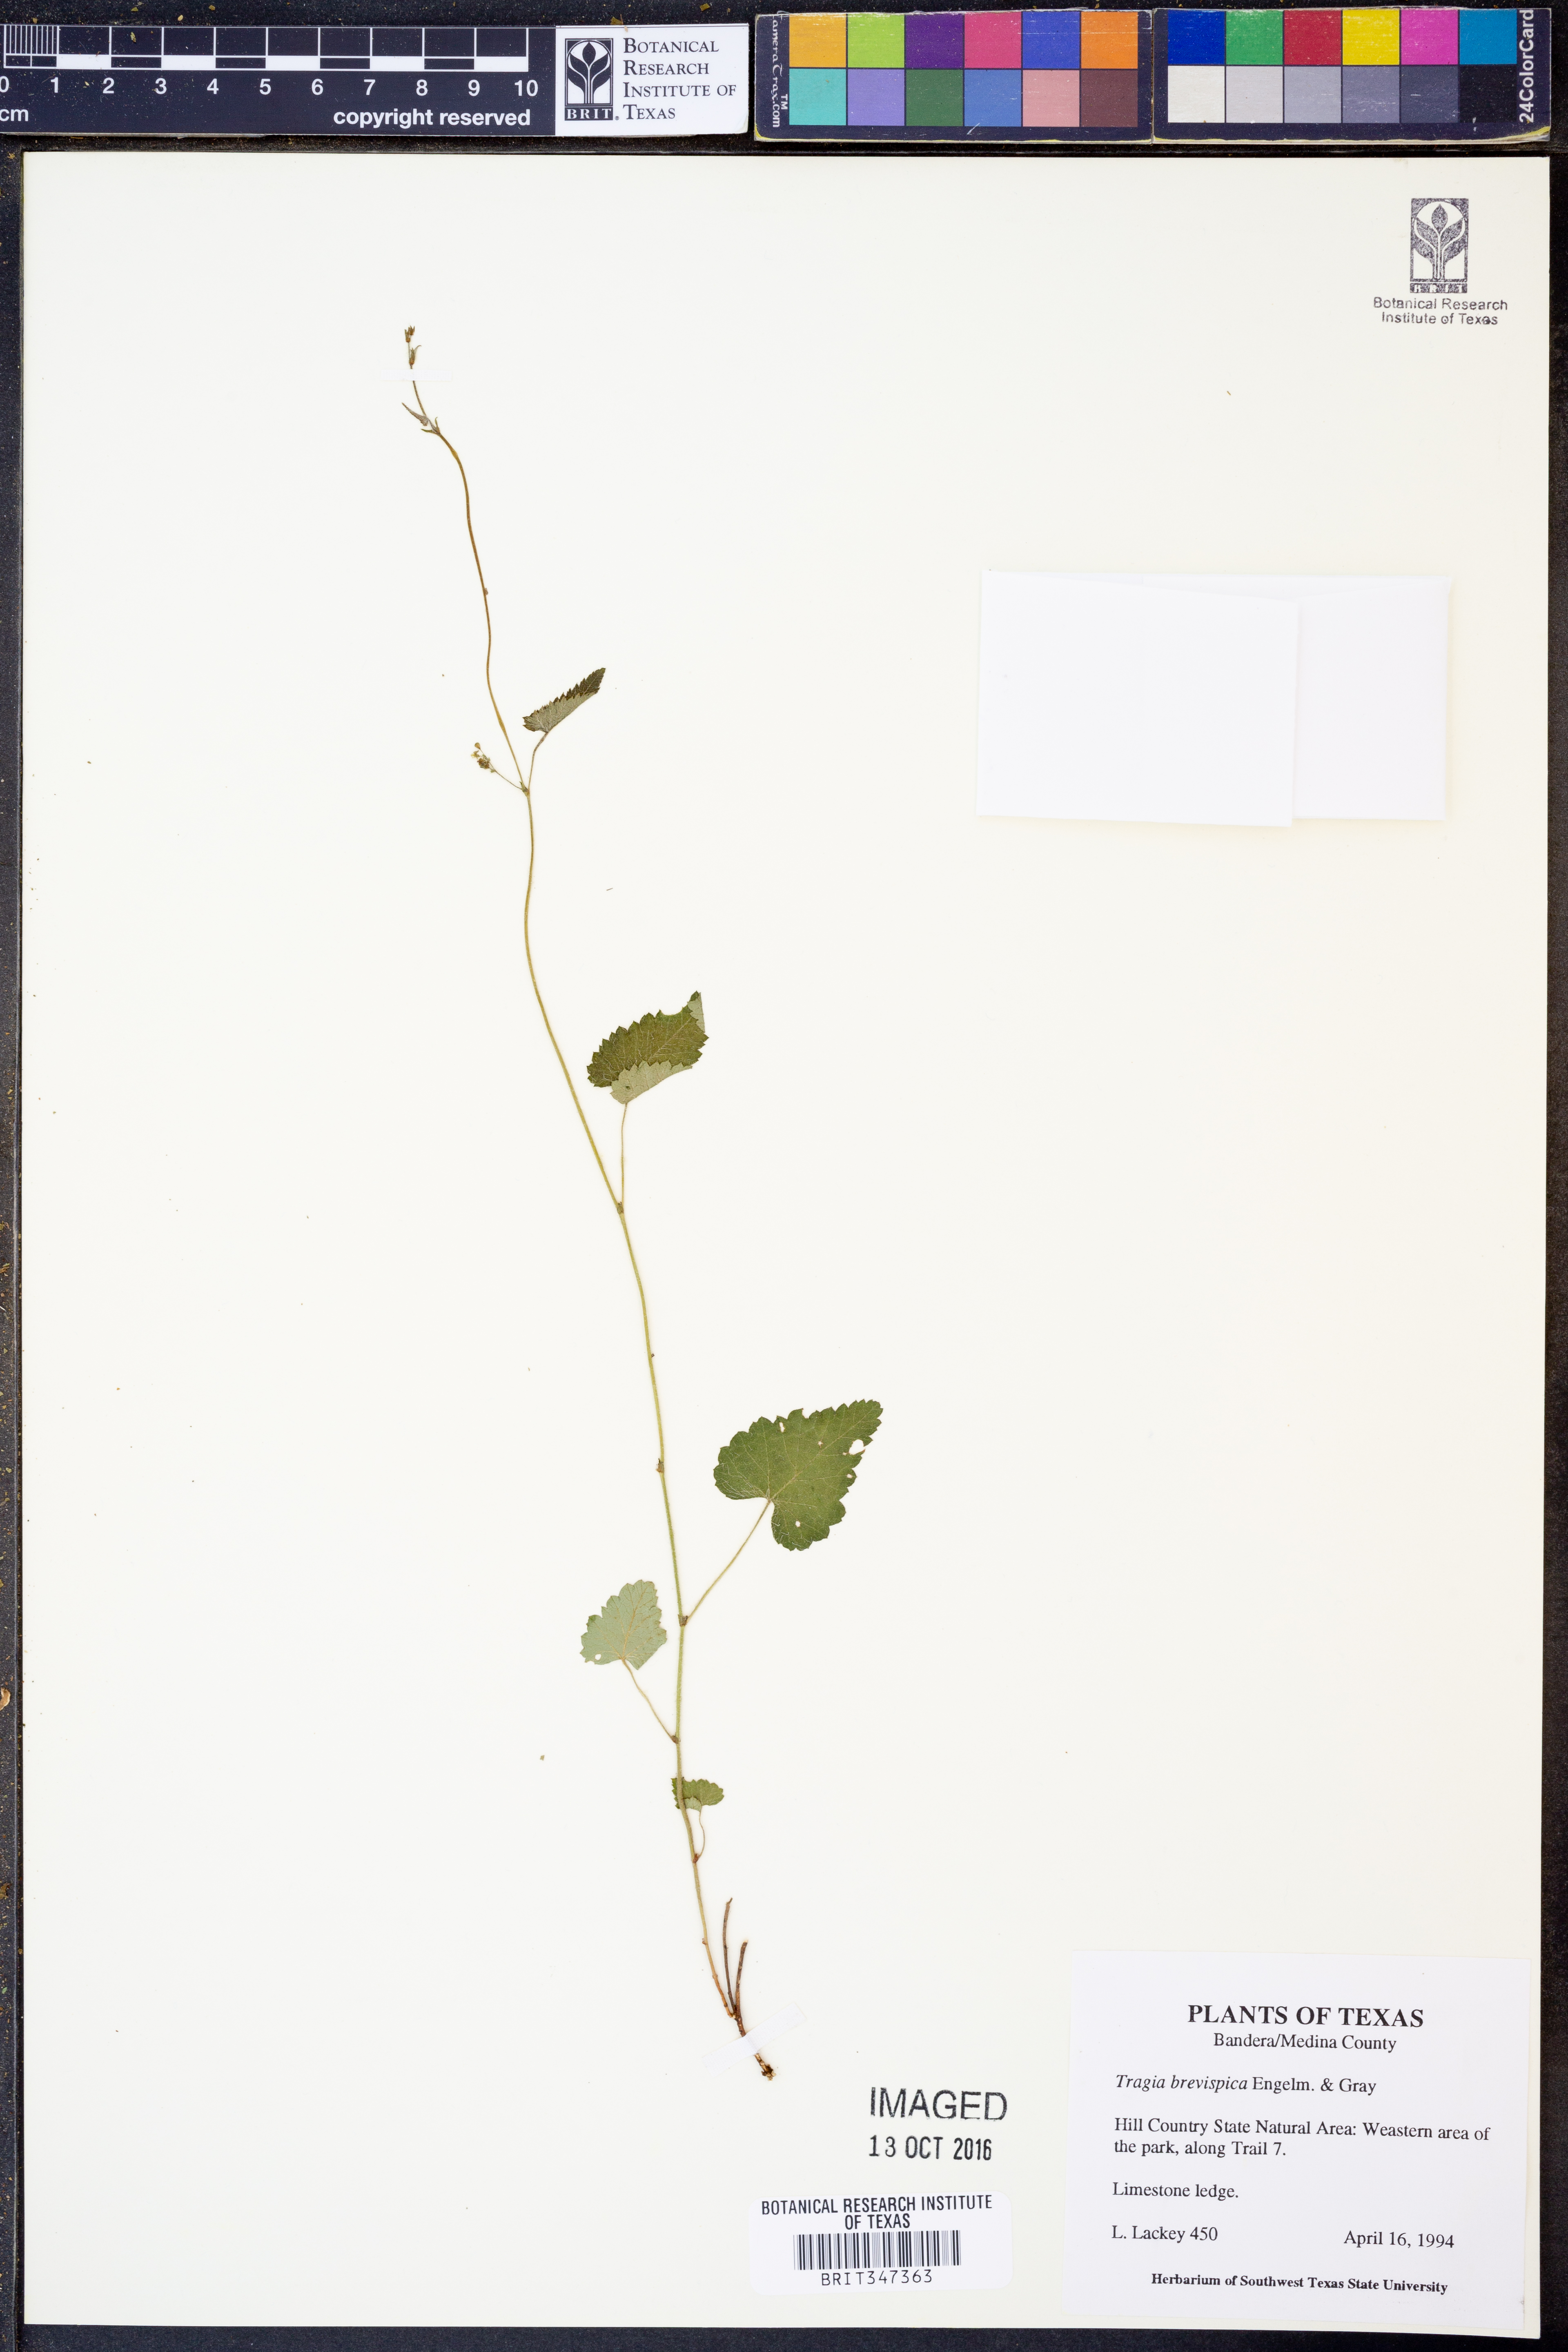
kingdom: Plantae
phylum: Tracheophyta
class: Magnoliopsida
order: Malpighiales
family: Euphorbiaceae
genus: Tragia
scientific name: Tragia brevispica
